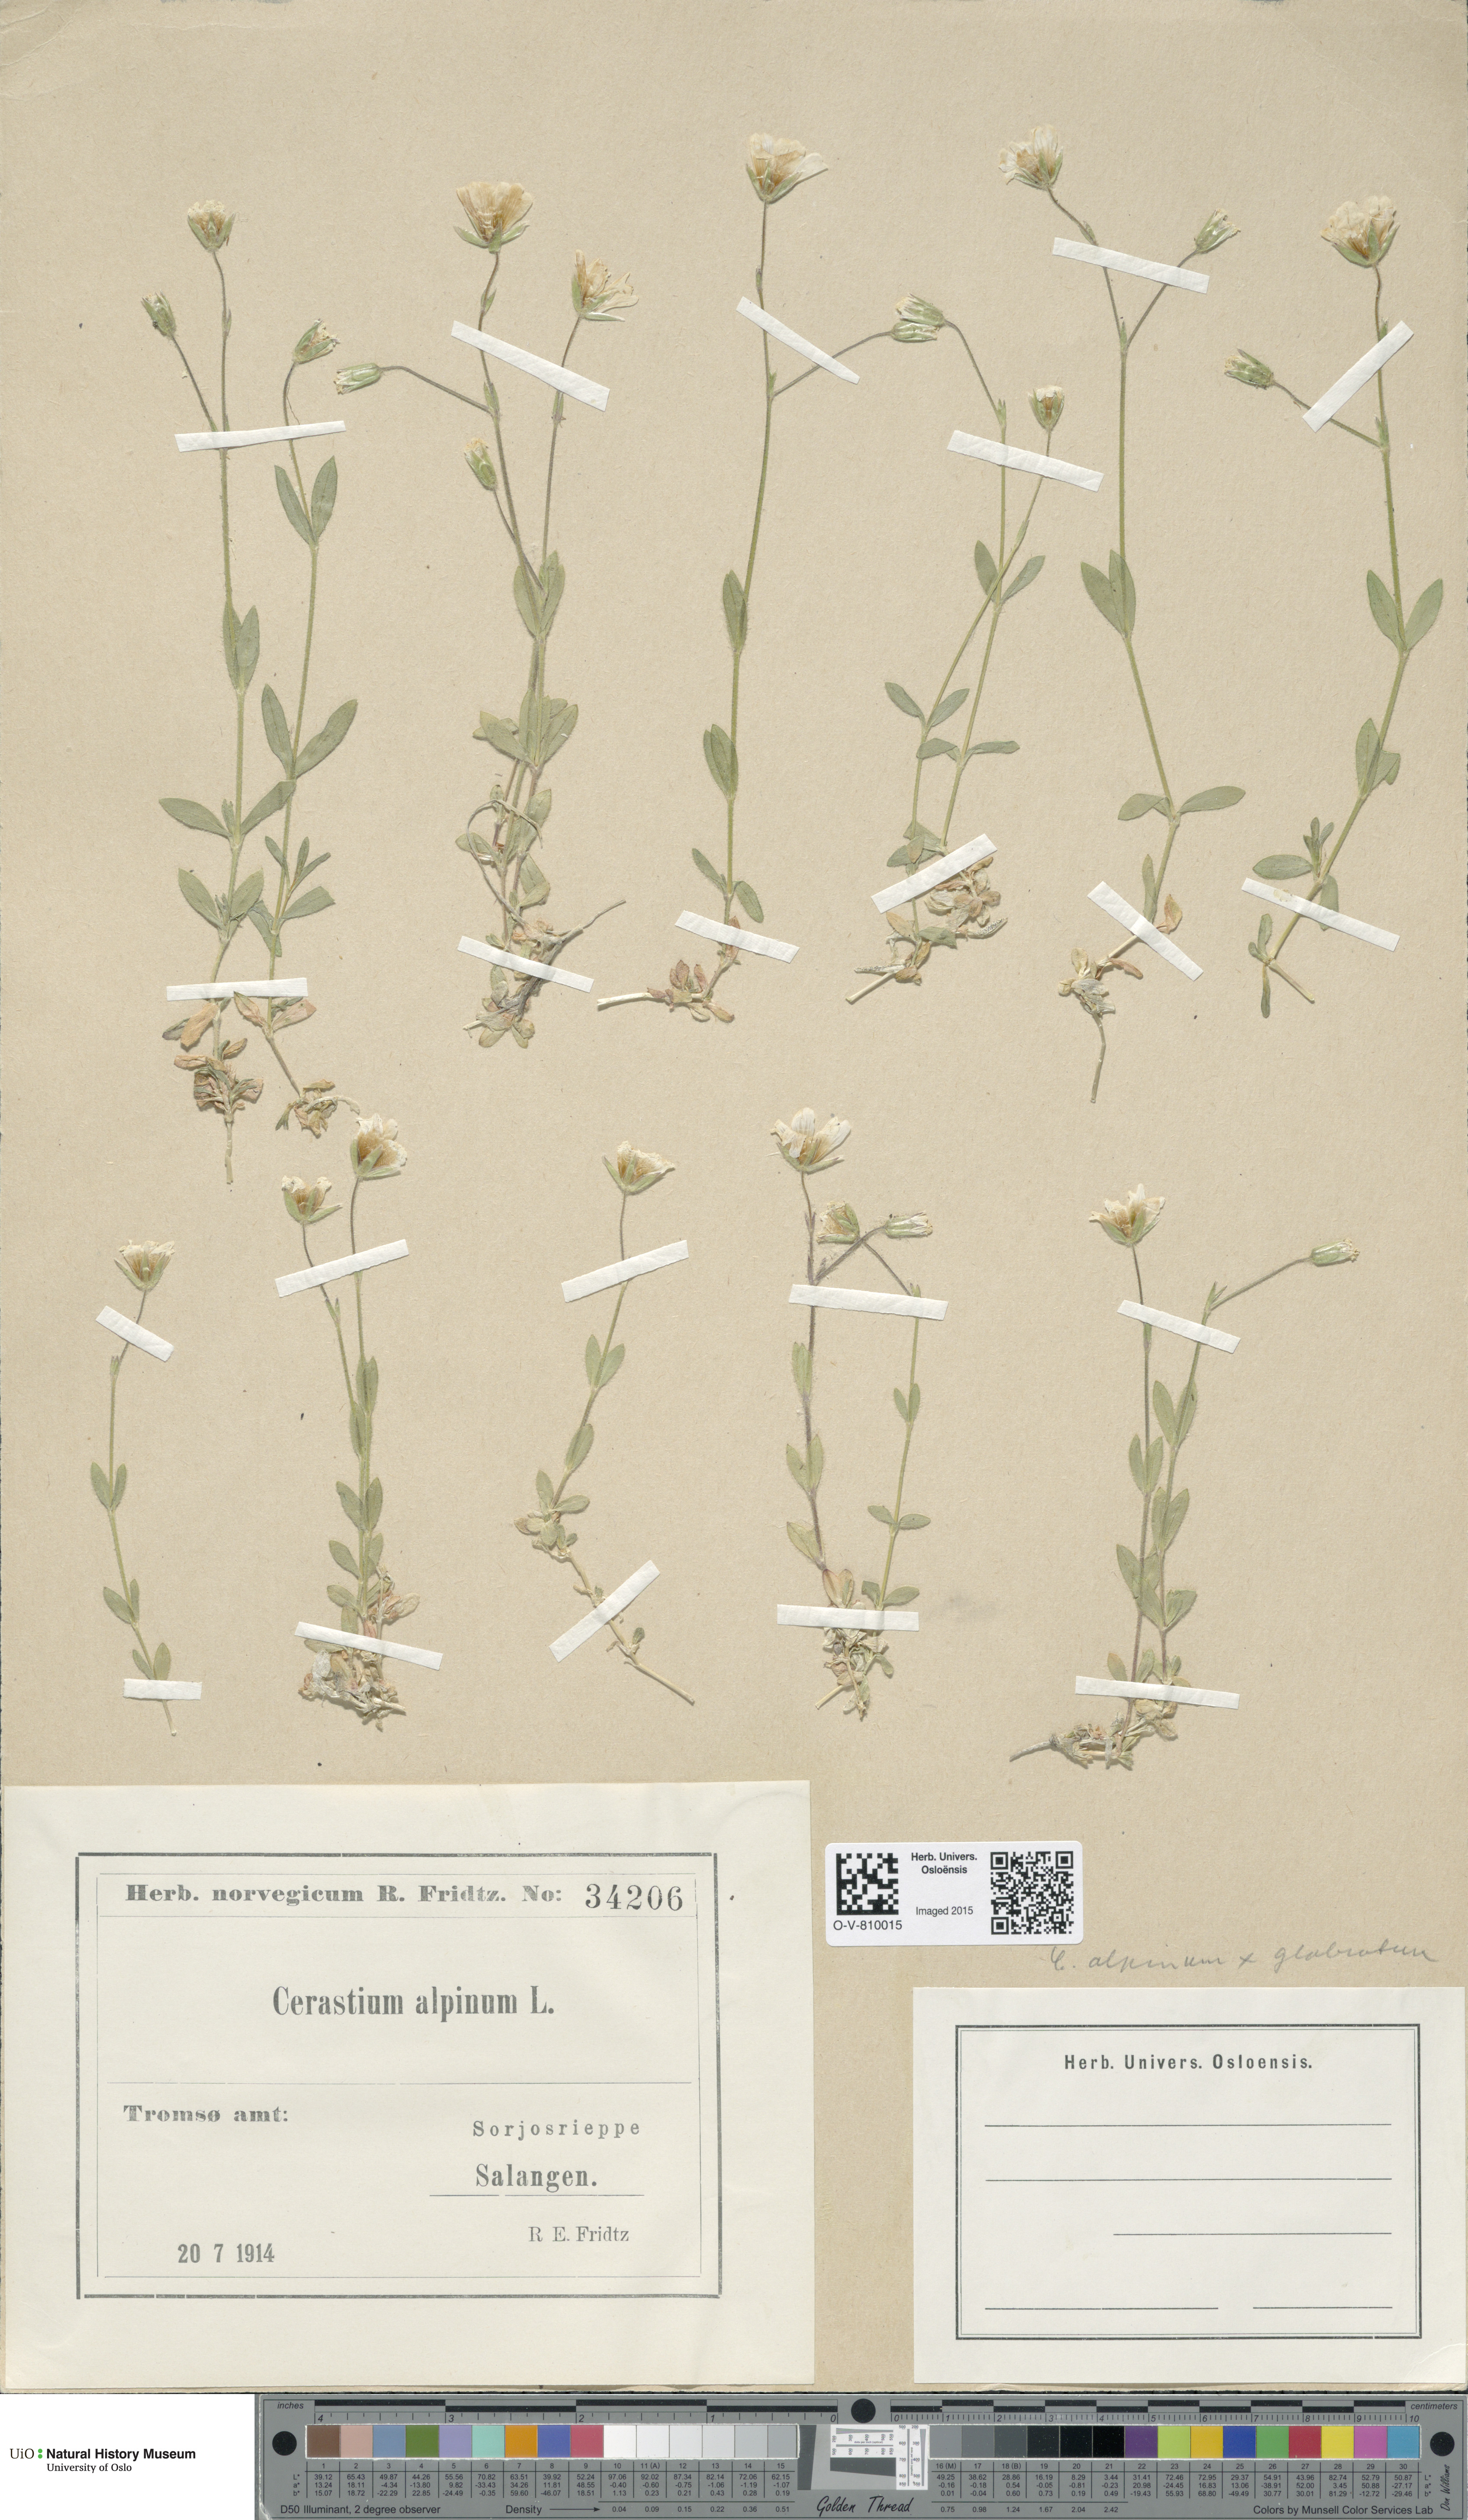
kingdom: Plantae
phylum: Tracheophyta
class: Magnoliopsida
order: Caryophyllales
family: Caryophyllaceae
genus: Cerastium
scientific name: Cerastium
